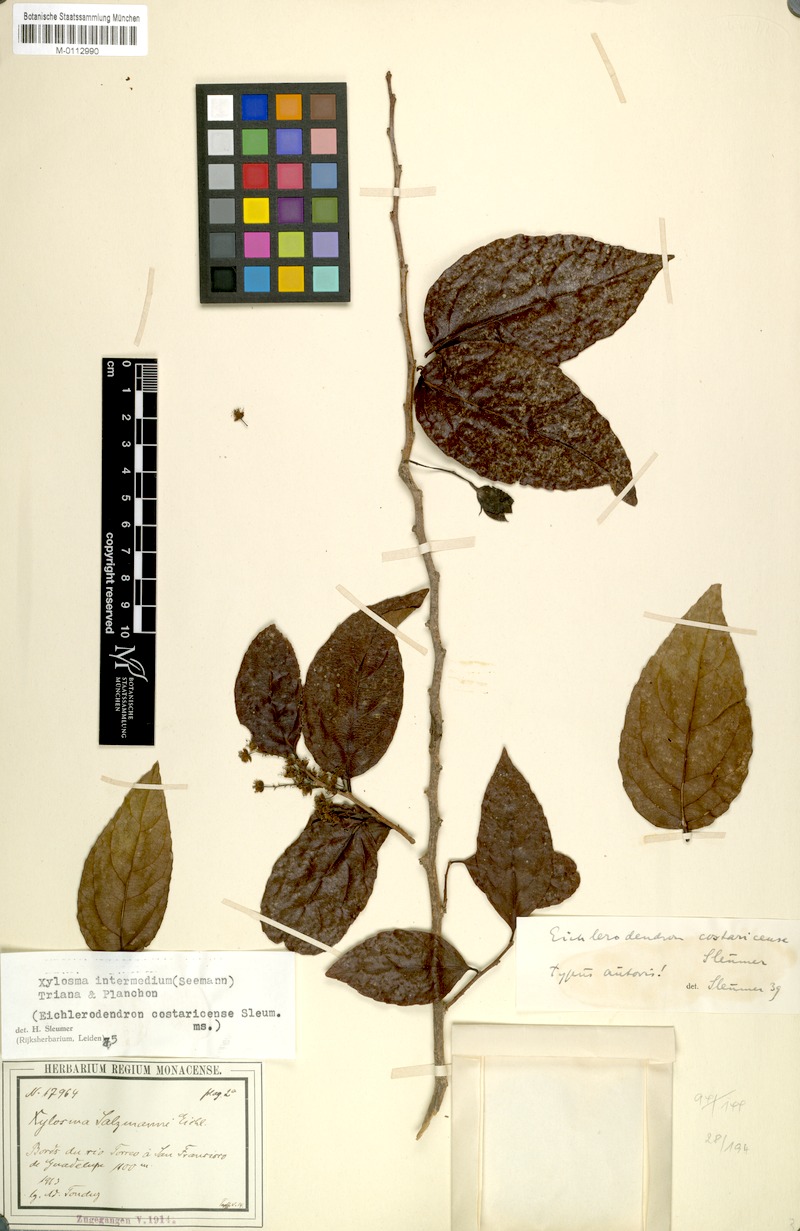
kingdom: Plantae
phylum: Tracheophyta
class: Magnoliopsida
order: Malpighiales
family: Salicaceae
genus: Xylosma
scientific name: Xylosma intermedia
